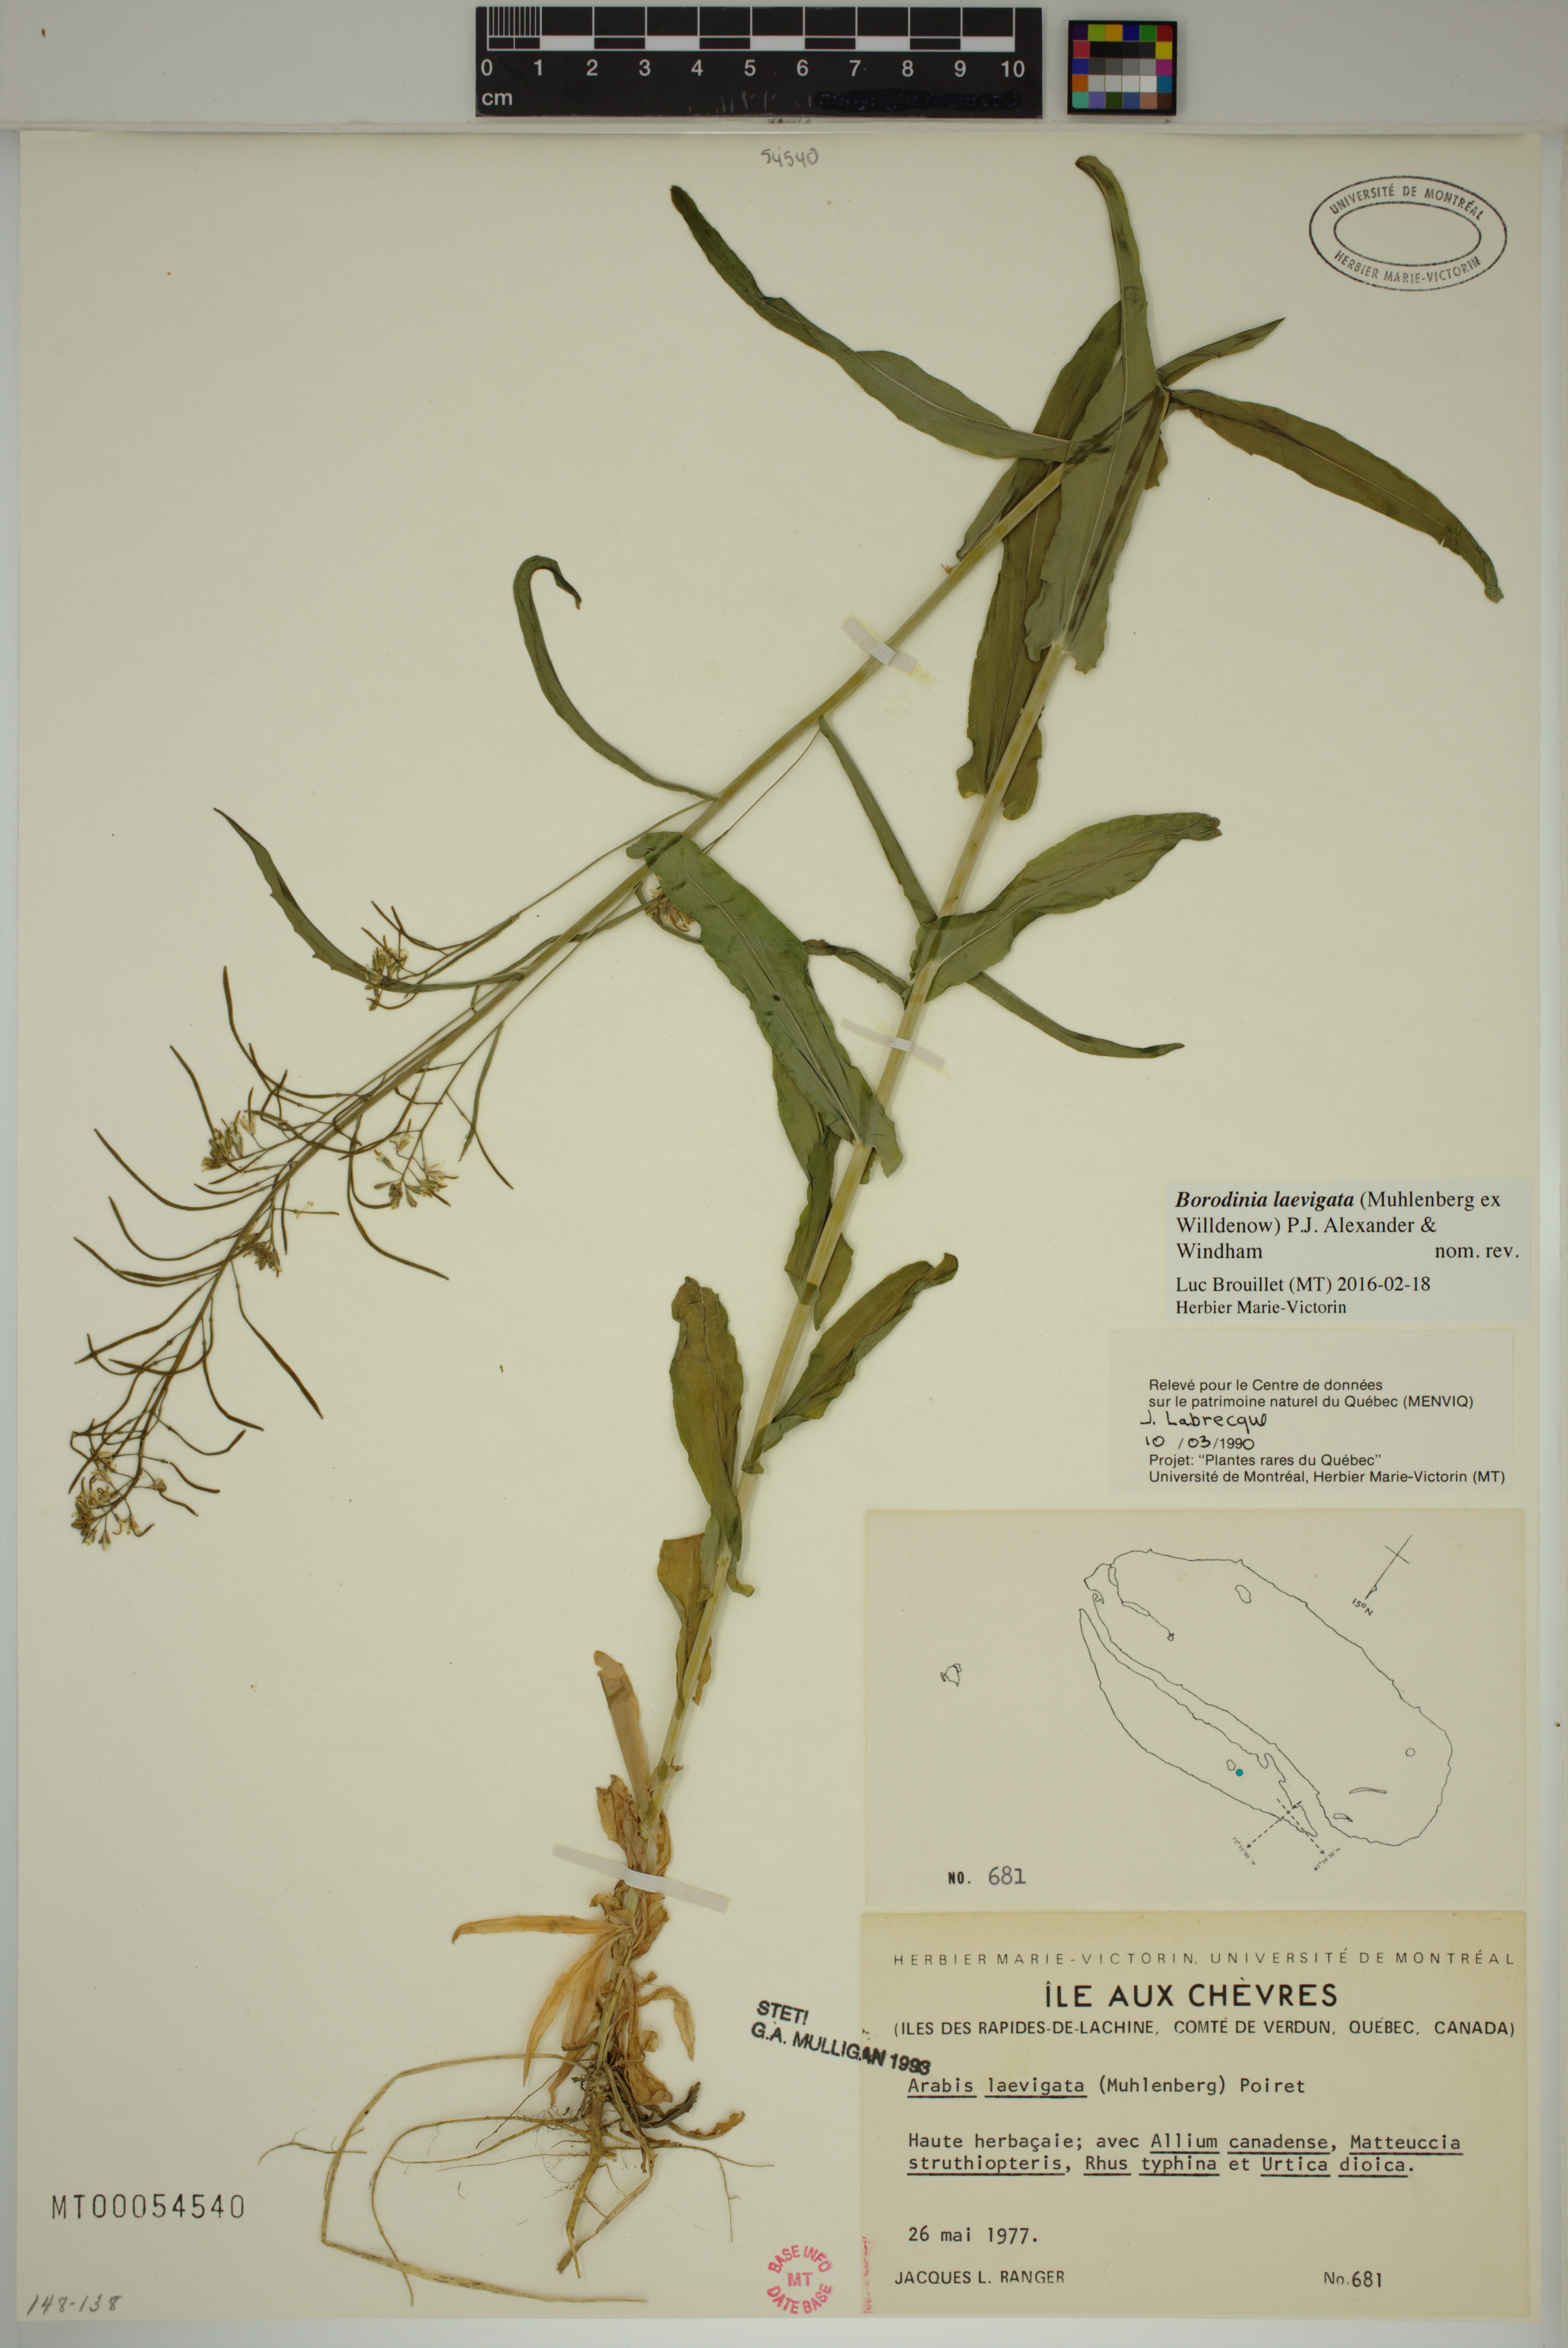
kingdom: Plantae
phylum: Tracheophyta
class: Magnoliopsida
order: Brassicales
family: Brassicaceae
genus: Borodinia
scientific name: Borodinia laevigata
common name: Smooth rockcress
